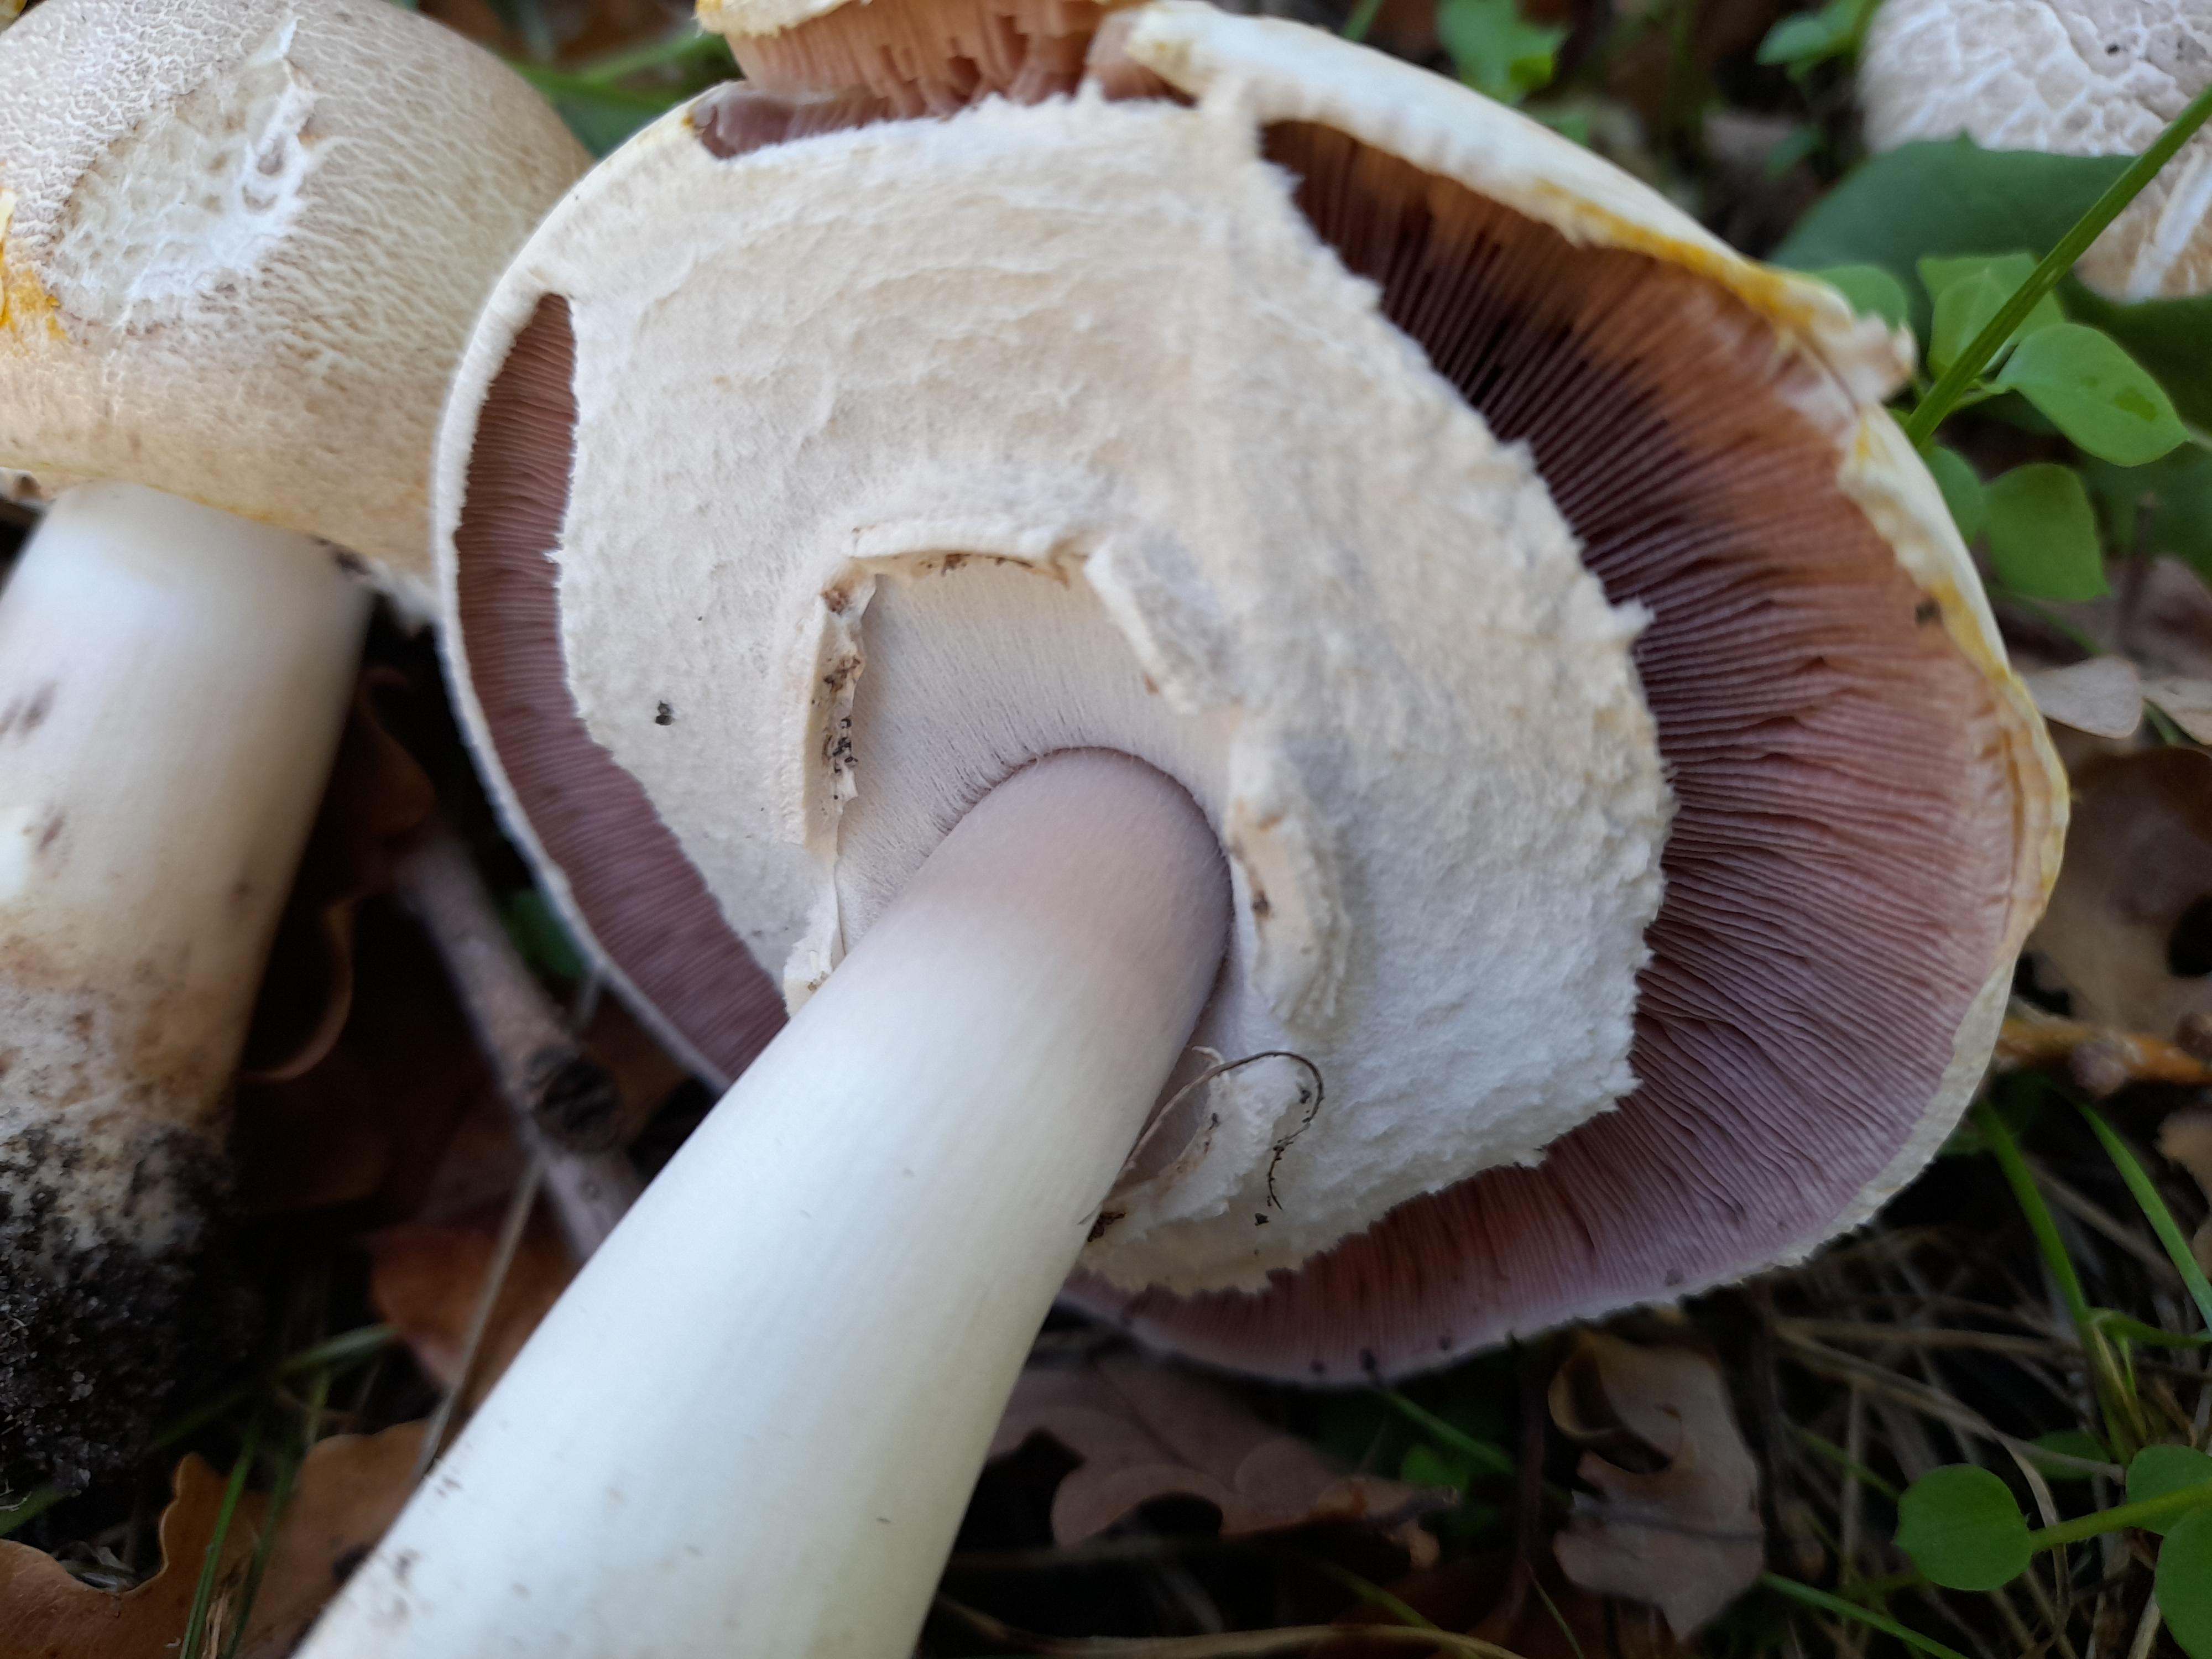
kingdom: Fungi
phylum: Basidiomycota
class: Agaricomycetes
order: Agaricales
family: Agaricaceae
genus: Agaricus
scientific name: Agaricus xanthodermus
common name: karbol-champignon
